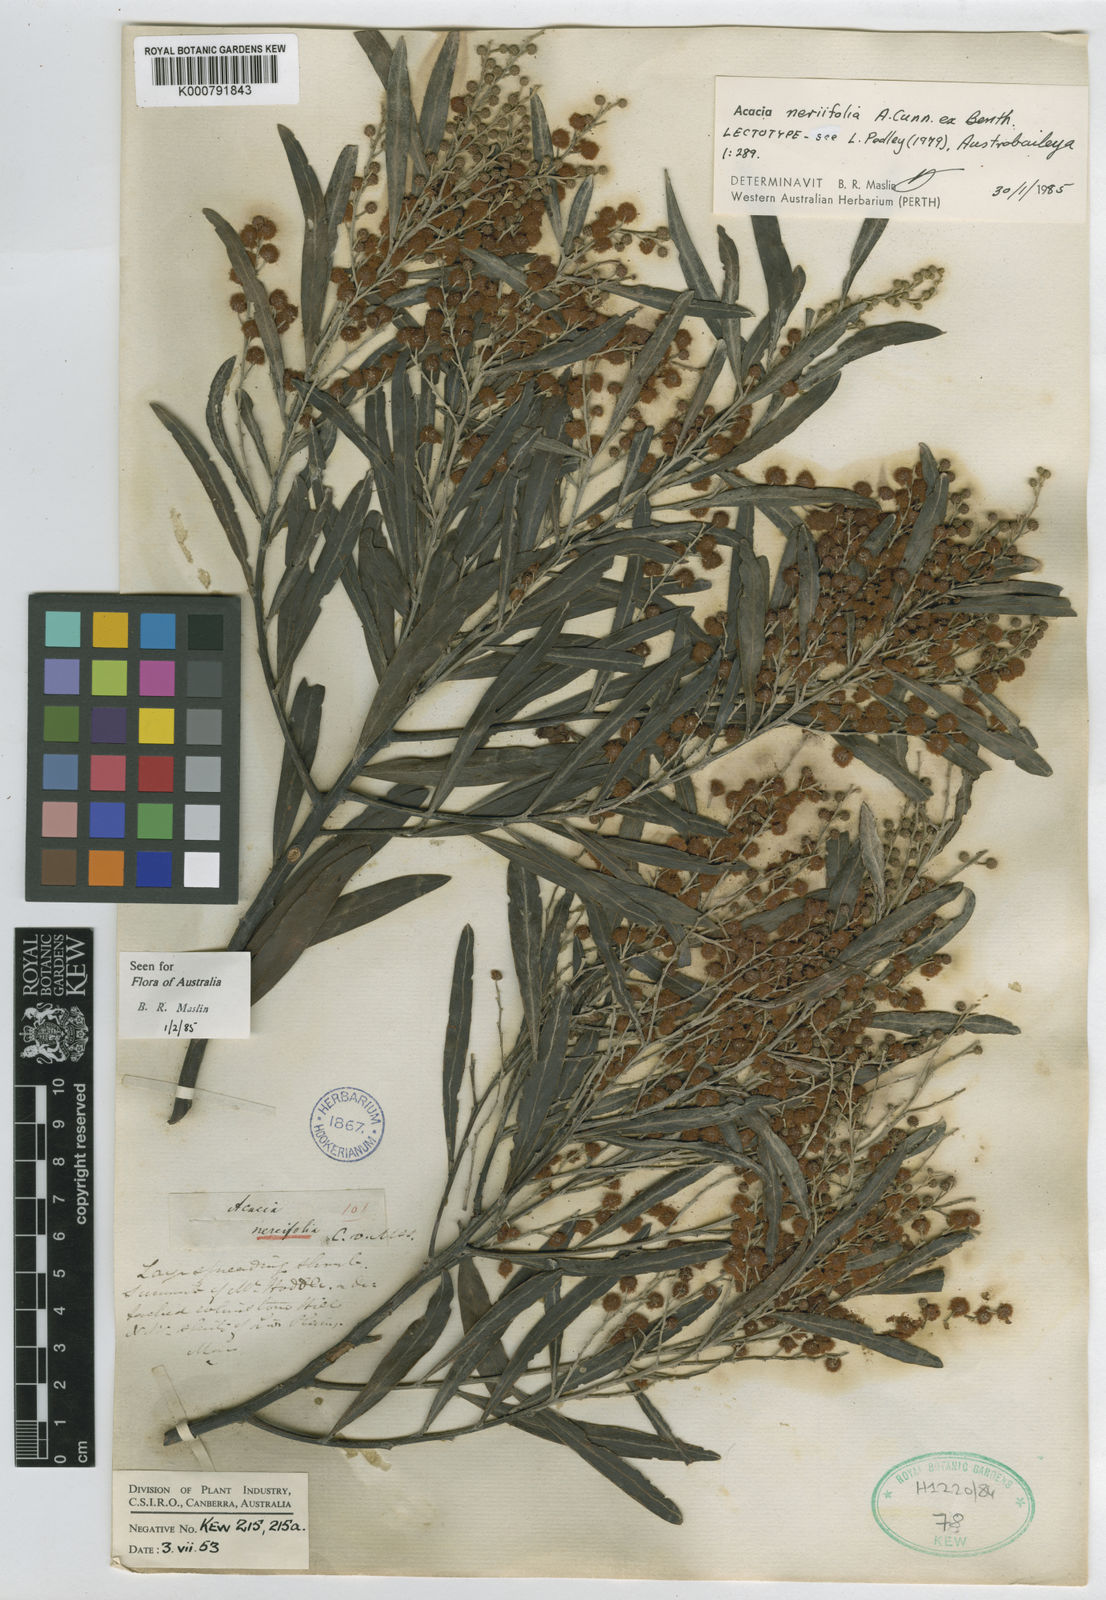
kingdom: Plantae
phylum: Tracheophyta
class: Magnoliopsida
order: Fabales
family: Fabaceae
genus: Acacia
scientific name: Acacia neriifolia
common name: Oleander wattle
